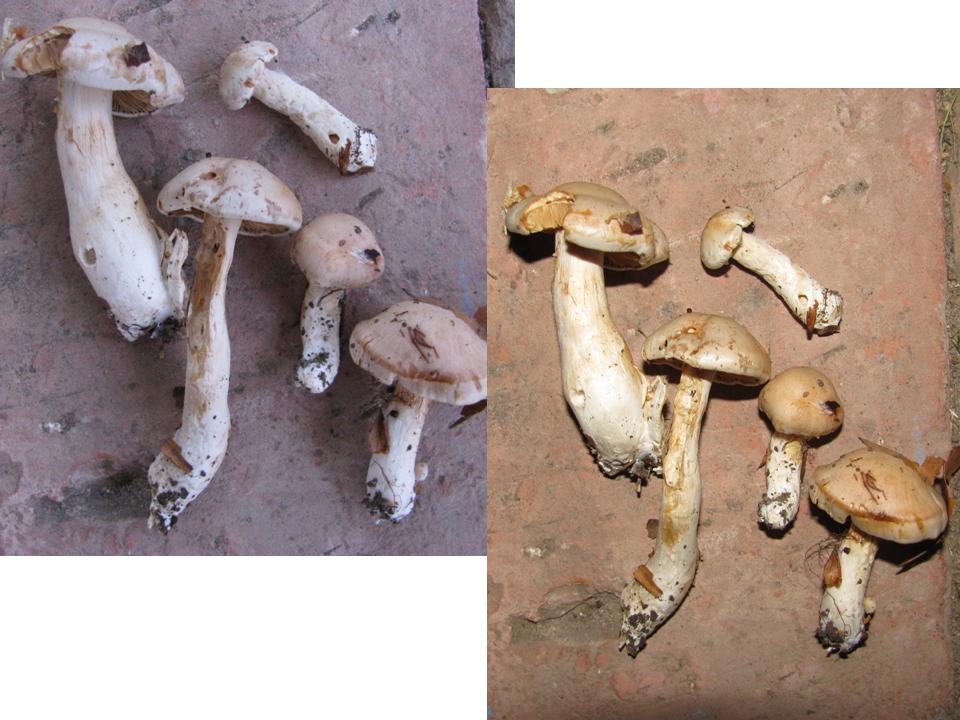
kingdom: Fungi
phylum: Basidiomycota
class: Agaricomycetes
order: Agaricales
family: Cortinariaceae
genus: Thaxterogaster
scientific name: Thaxterogaster barbatus
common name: elfenbens-slørhat
